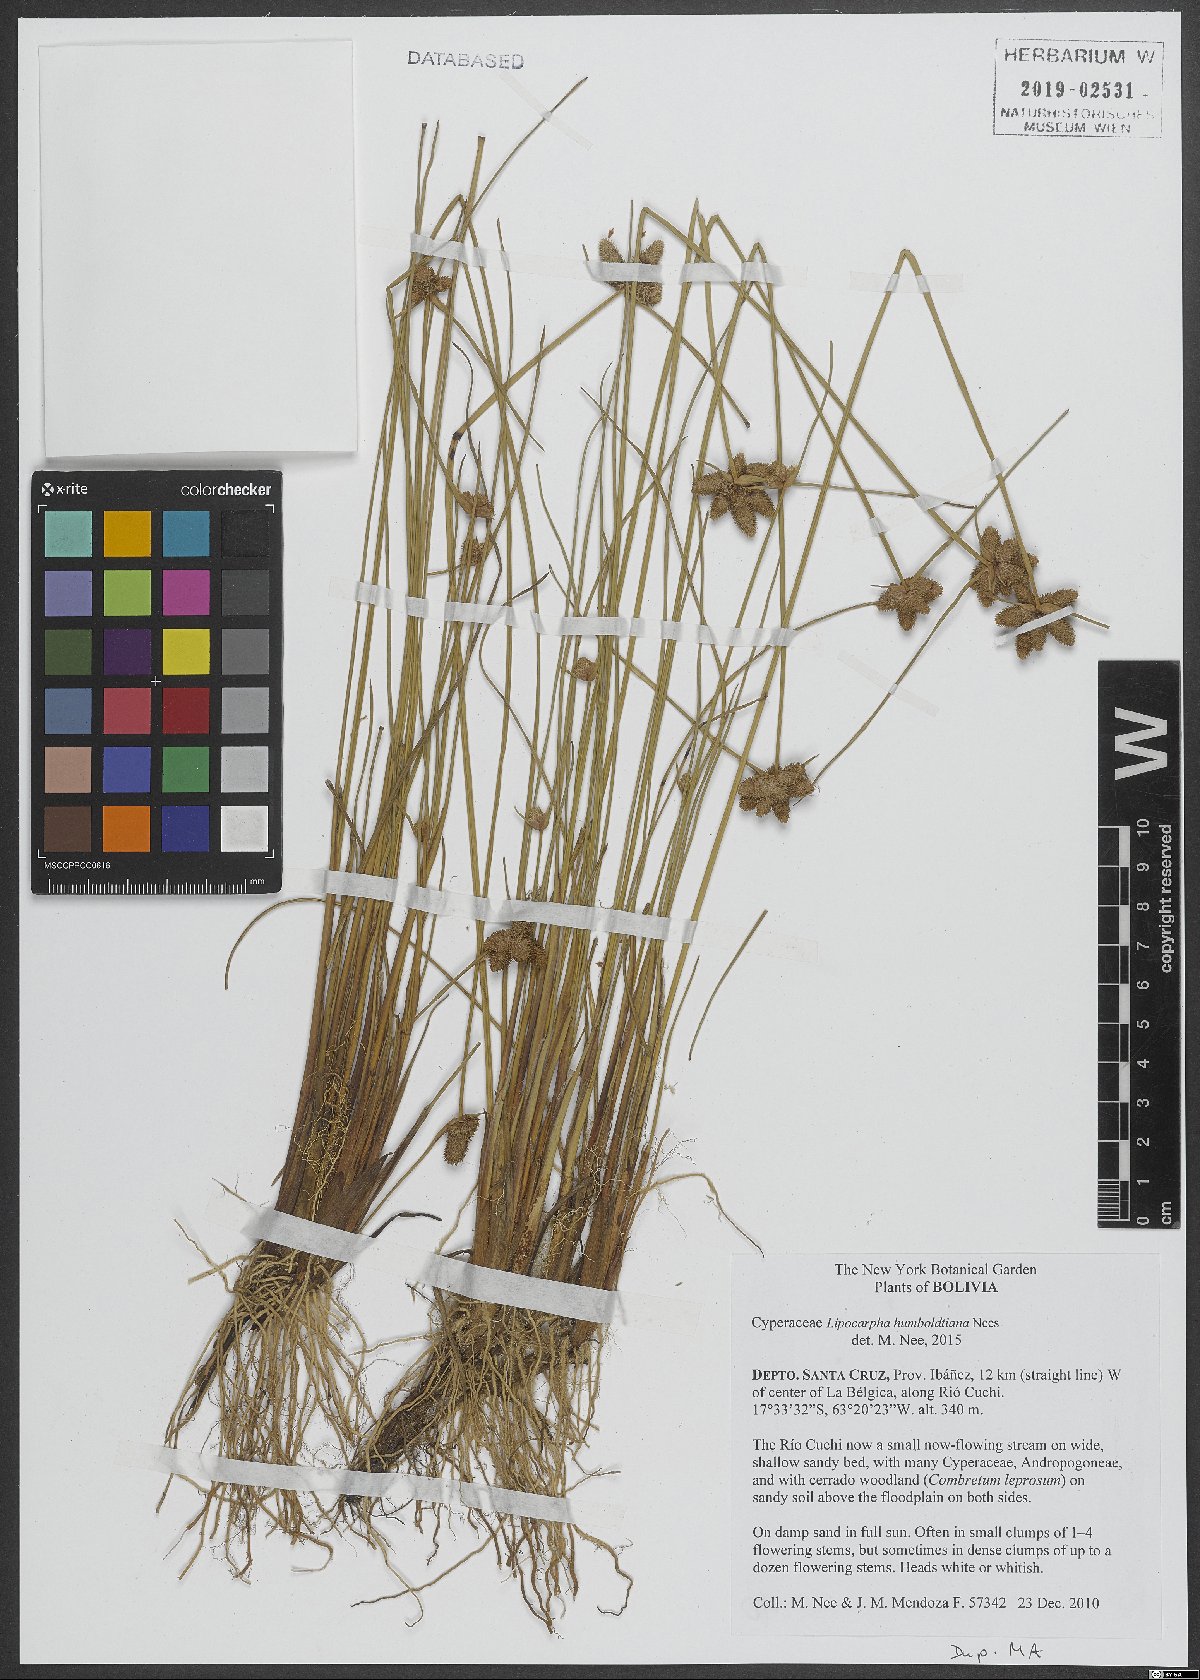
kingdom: Plantae
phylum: Tracheophyta
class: Liliopsida
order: Poales
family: Cyperaceae
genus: Cyperus
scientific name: Cyperus sellowianus
